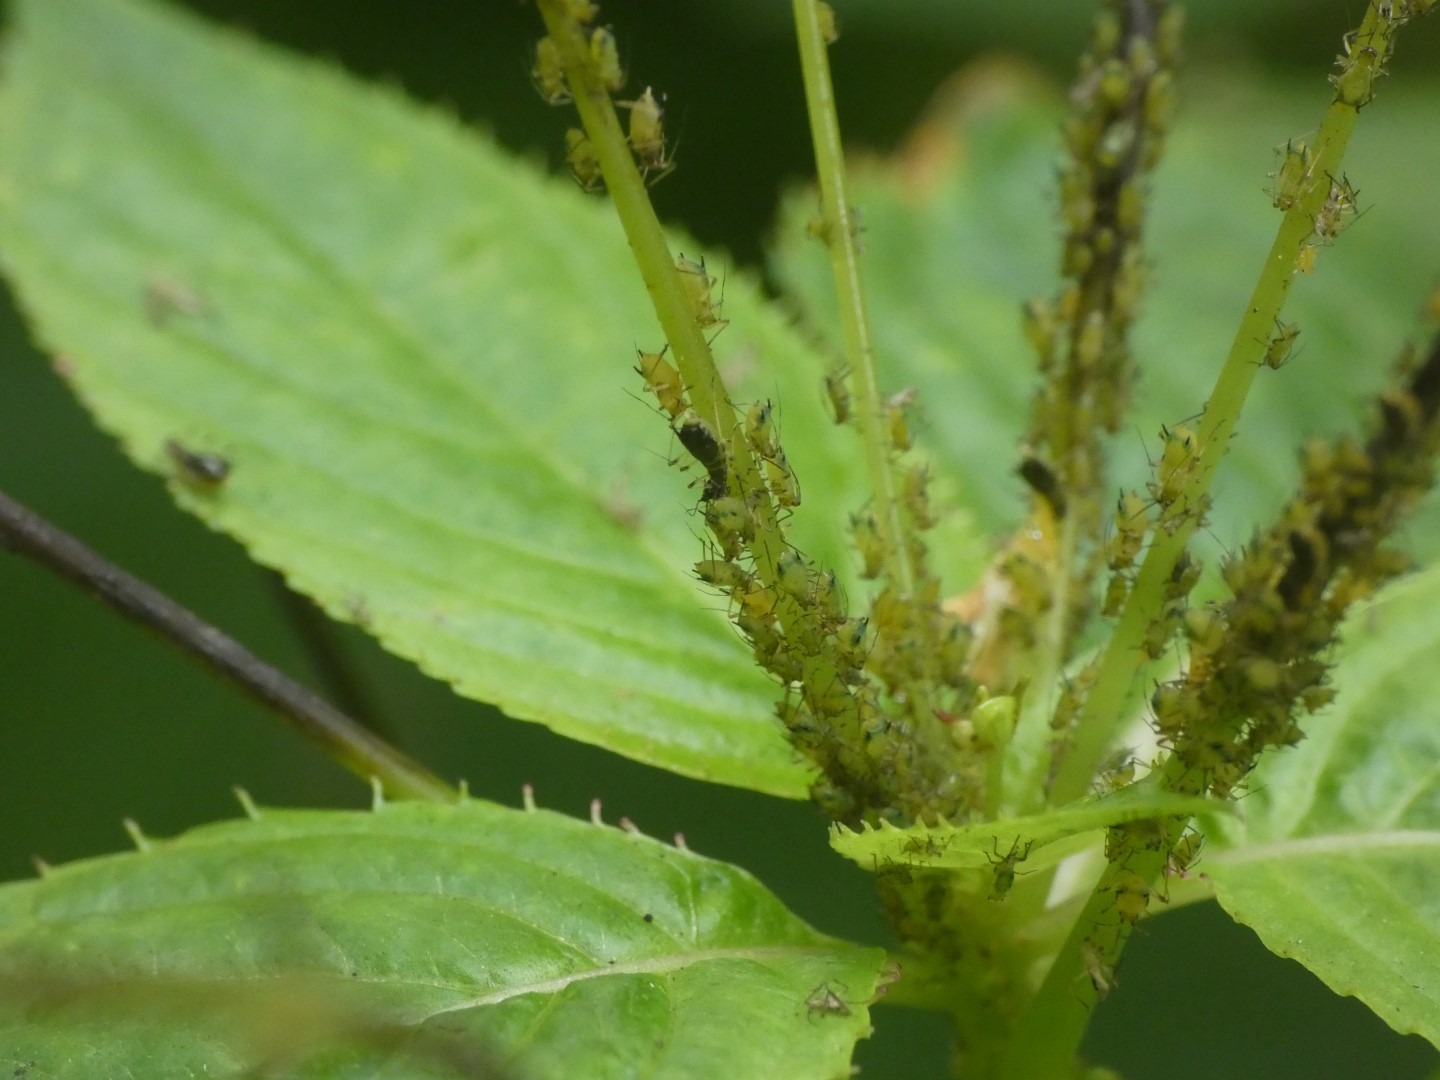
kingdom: Animalia
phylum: Arthropoda
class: Insecta
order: Hemiptera
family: Aphididae
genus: Impatientinum
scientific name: Impatientinum asiaticum
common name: Asiatisk balsaminbladlus
